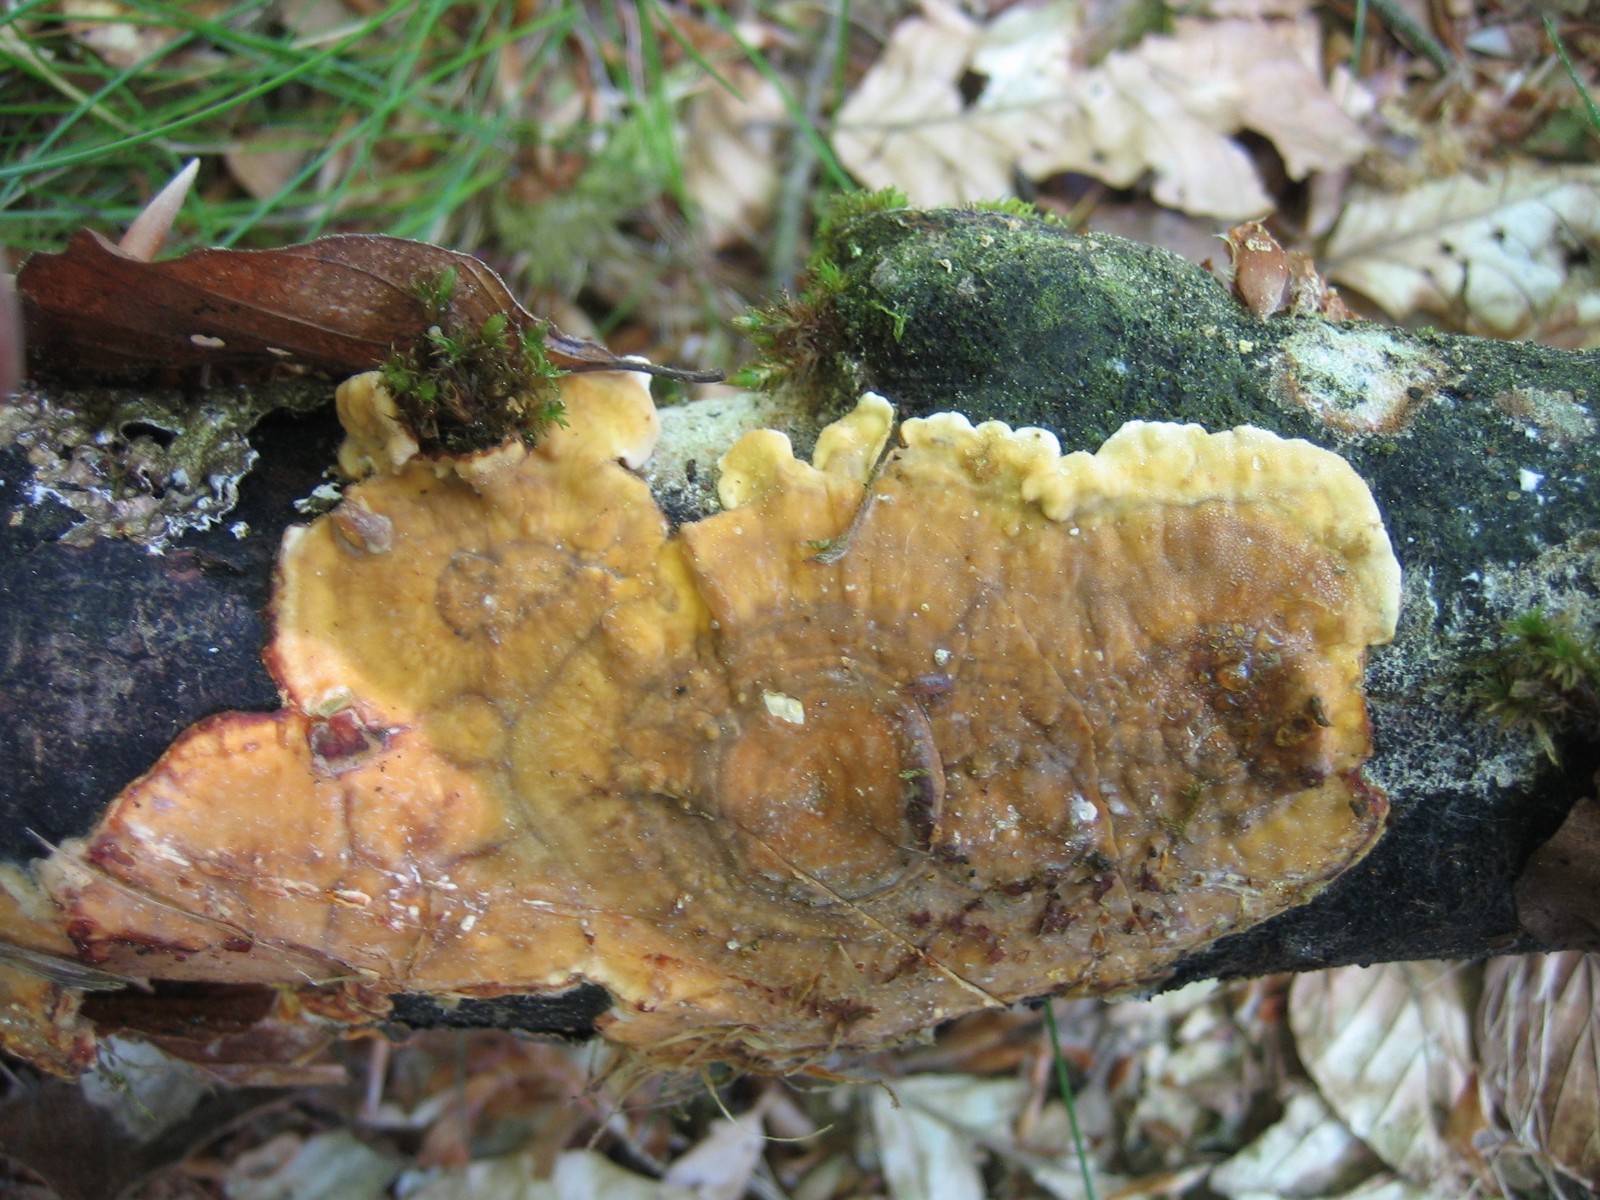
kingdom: Fungi
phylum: Basidiomycota
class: Agaricomycetes
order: Russulales
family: Stereaceae
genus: Stereum
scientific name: Stereum hirsutum
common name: håret lædersvamp
